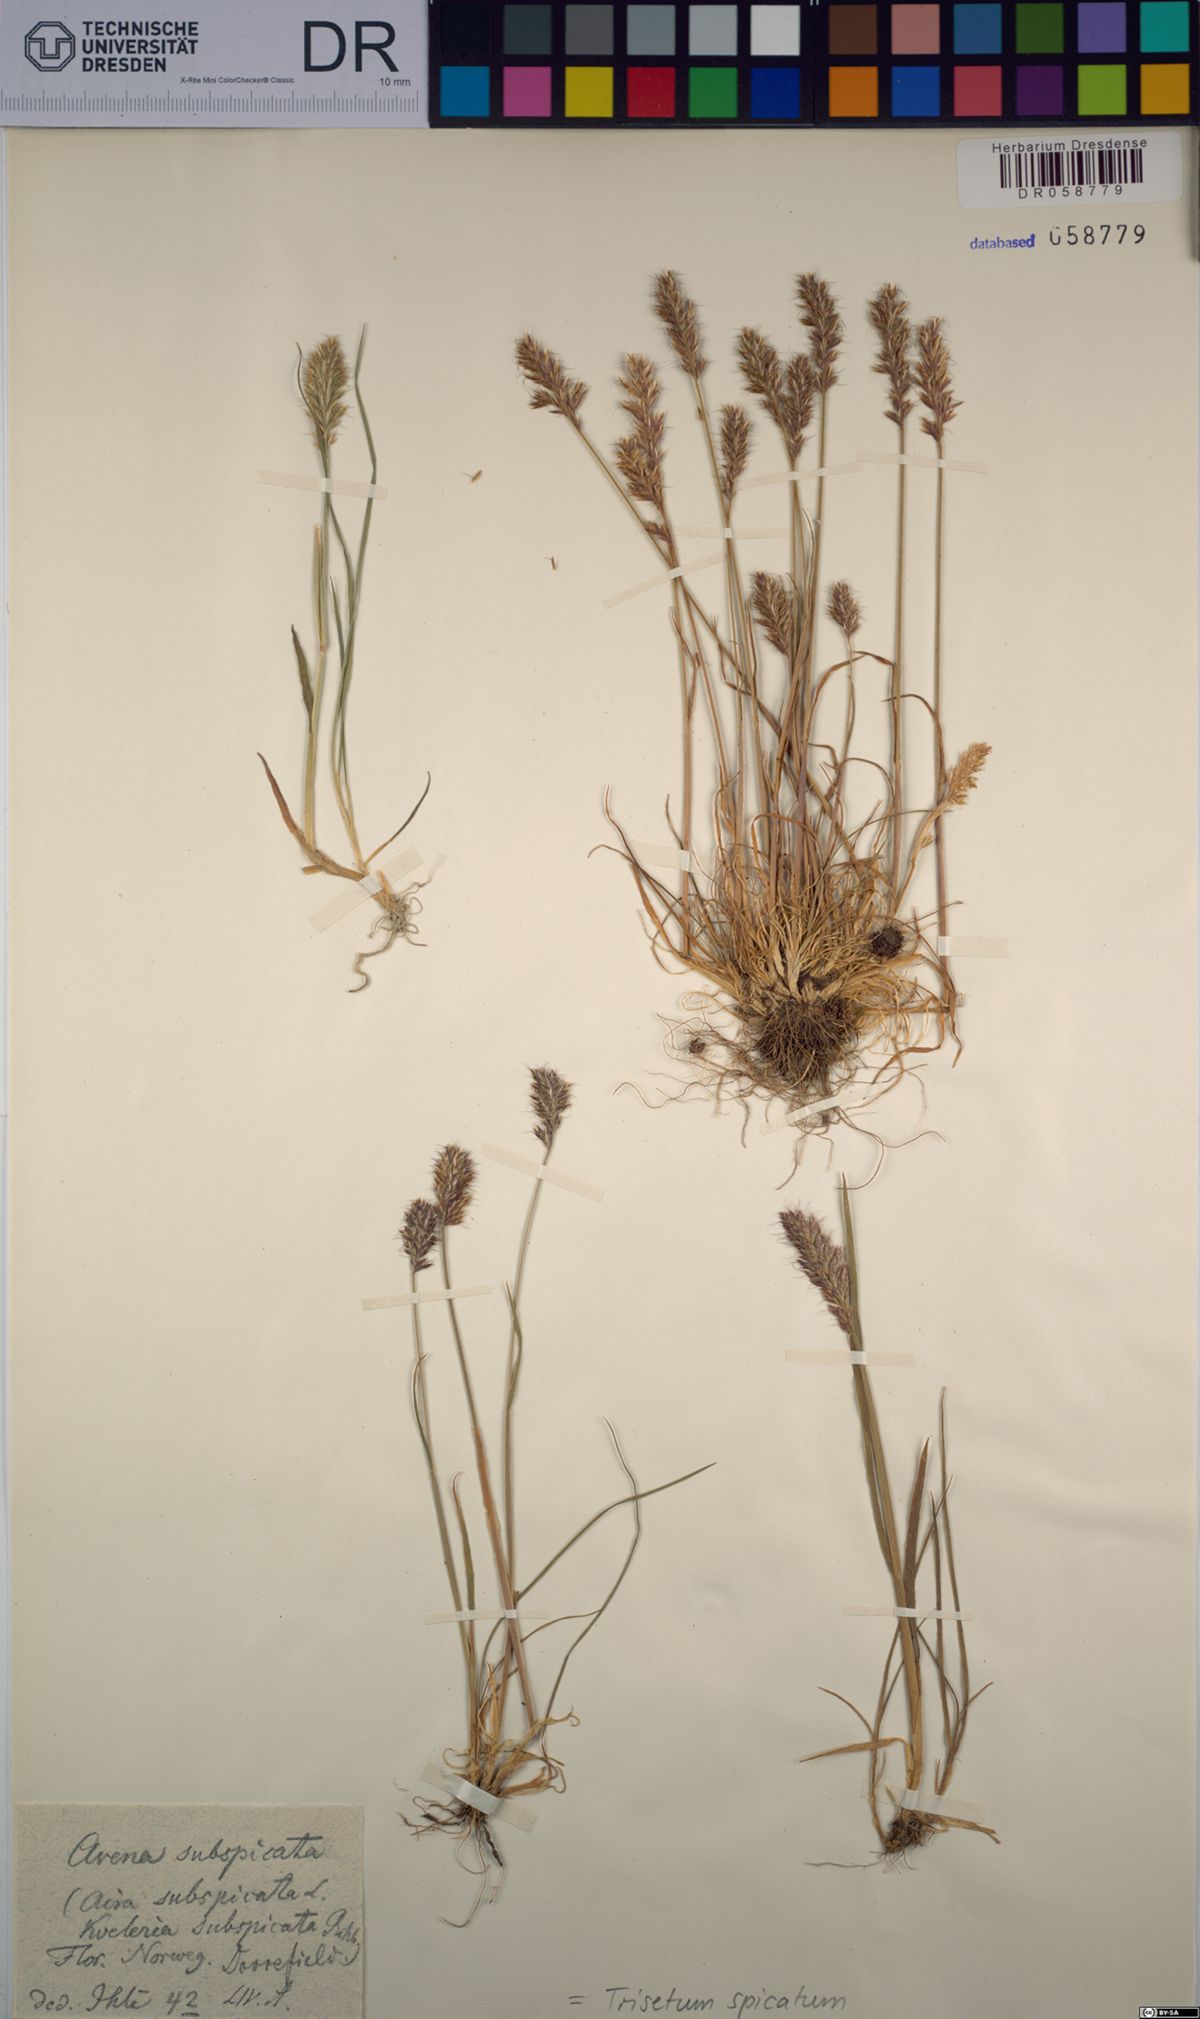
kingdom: Plantae
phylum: Tracheophyta
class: Liliopsida
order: Poales
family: Poaceae
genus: Koeleria
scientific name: Koeleria spicata
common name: Mountain trisetum
